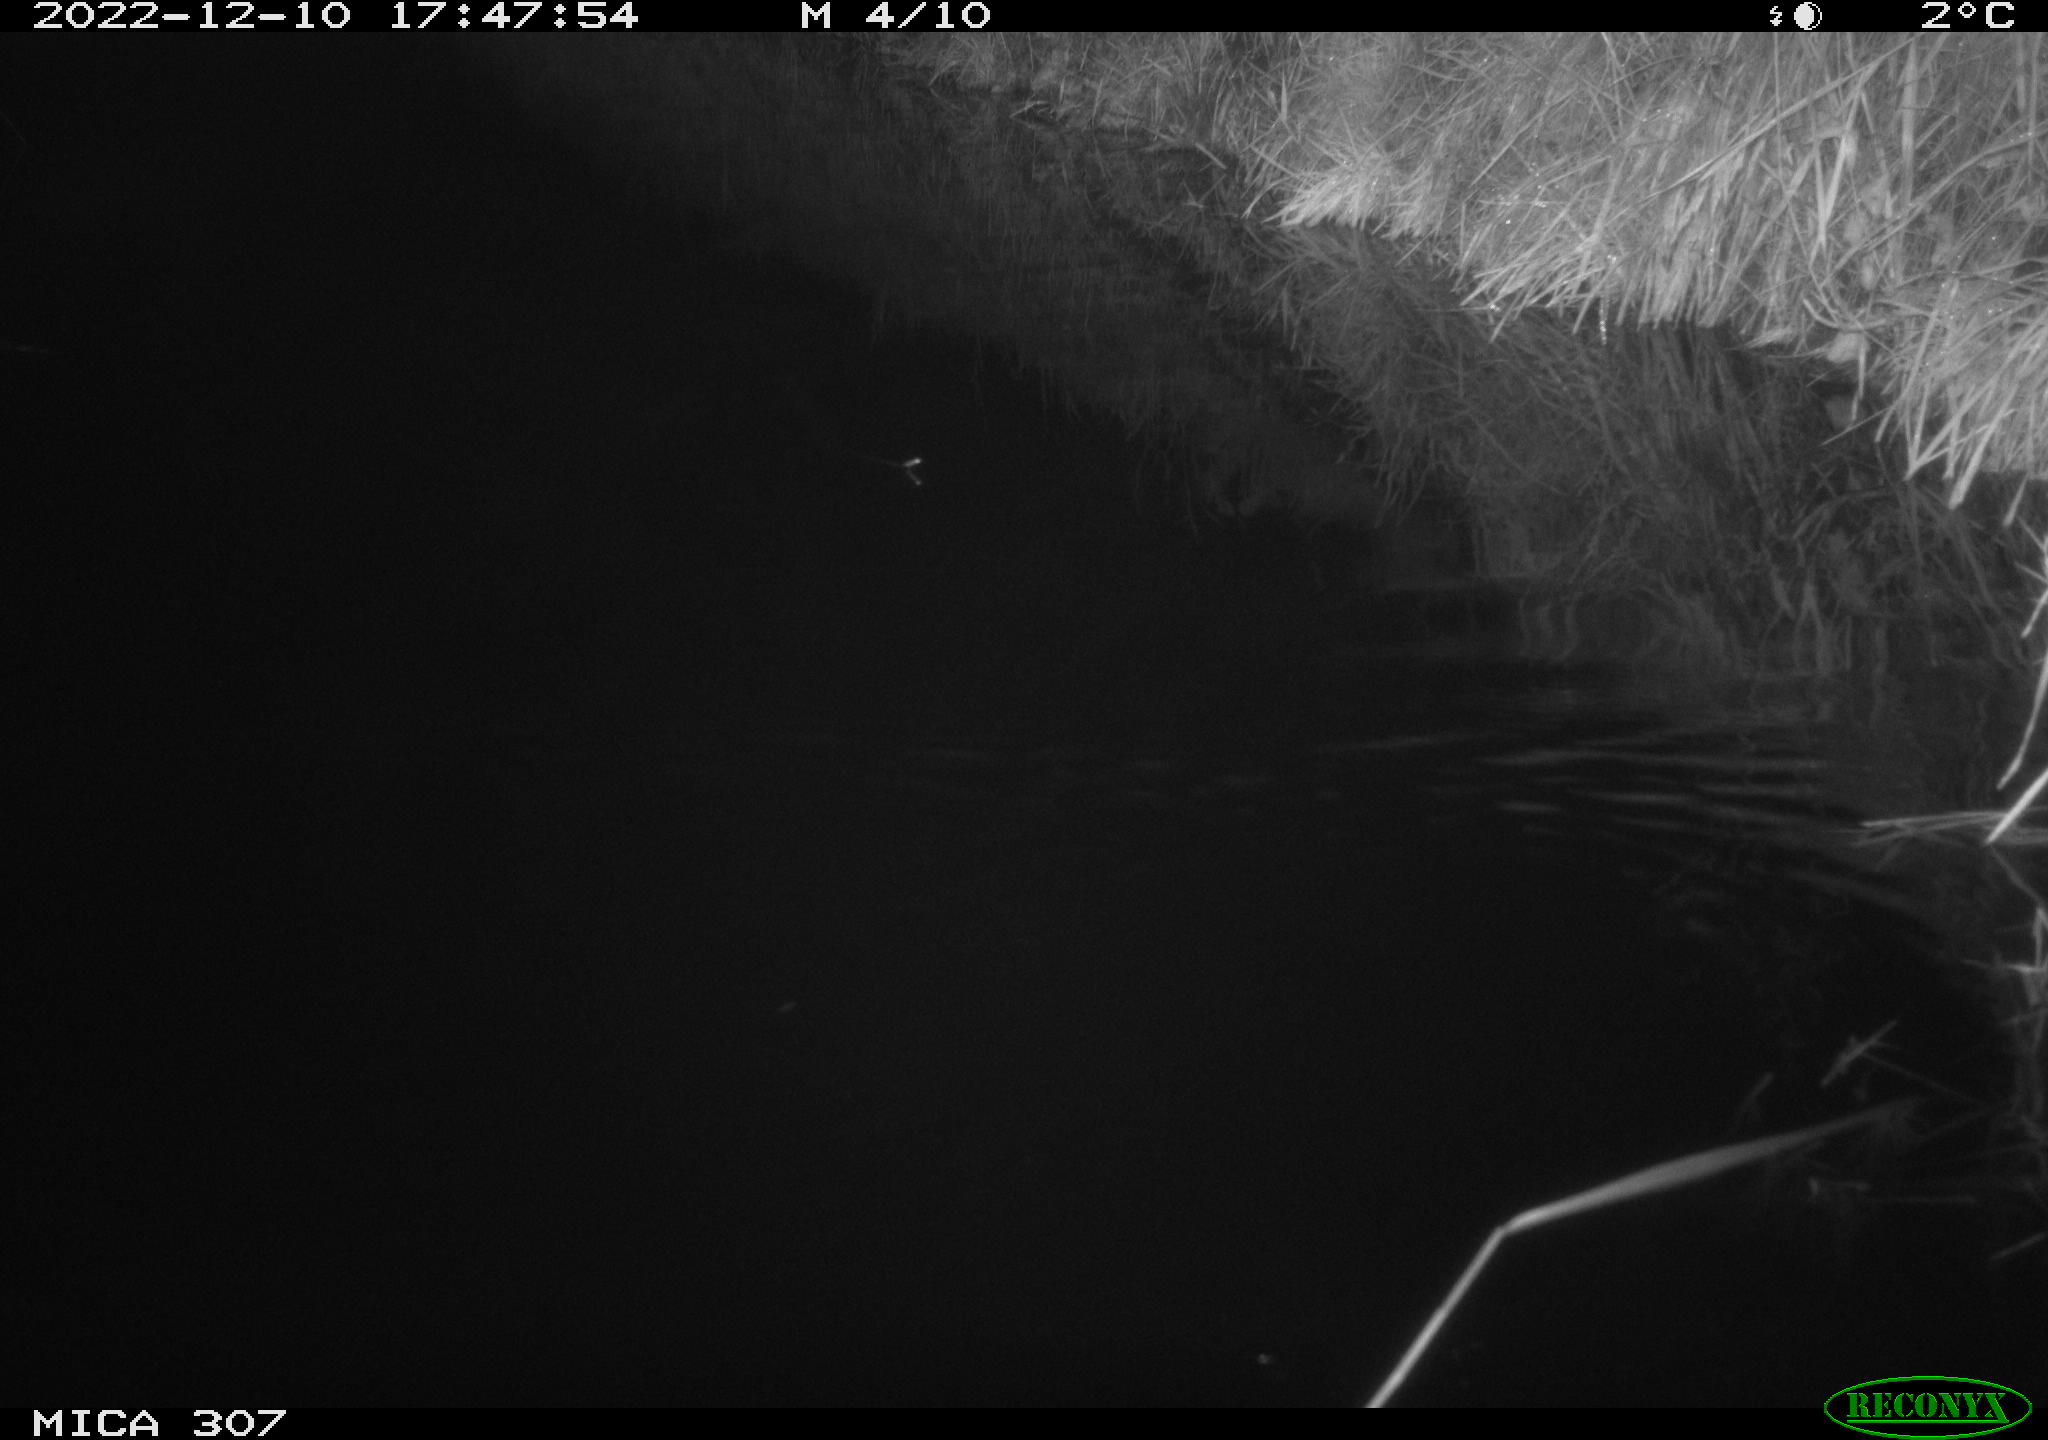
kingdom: Animalia
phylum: Chordata
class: Mammalia
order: Rodentia
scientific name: Rodentia
